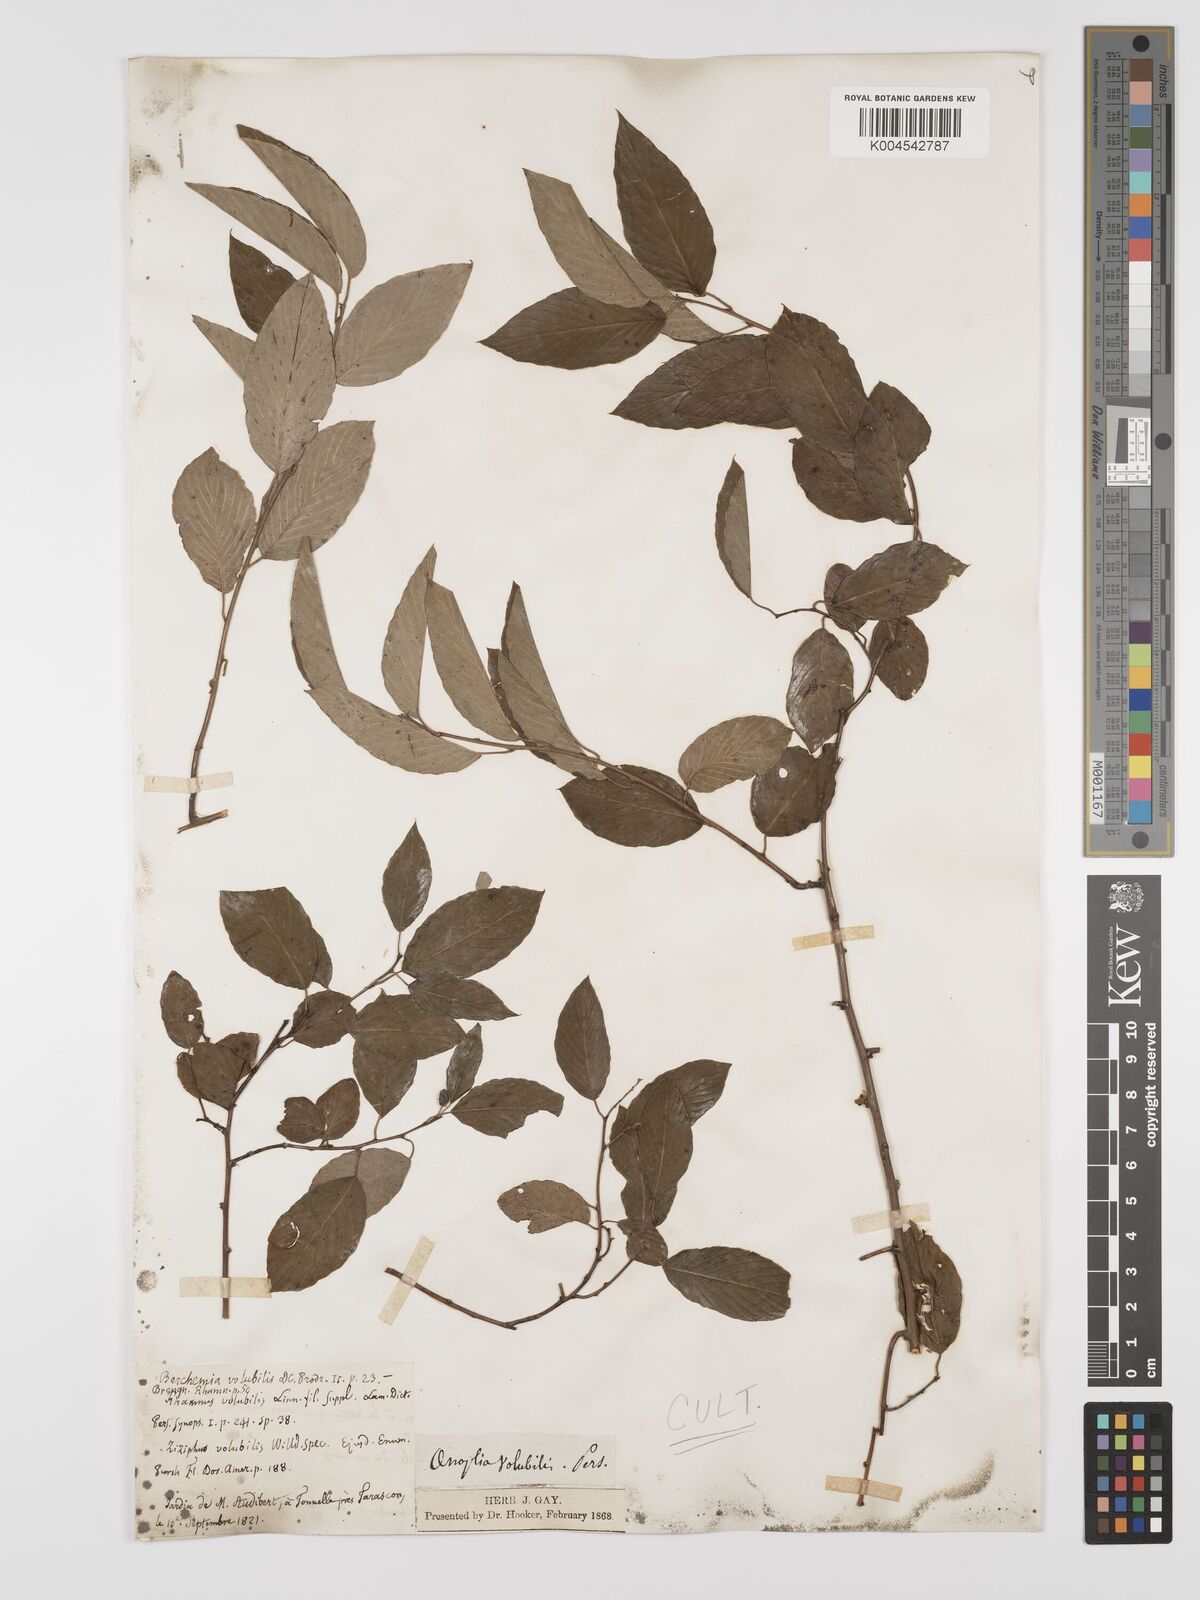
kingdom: Plantae
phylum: Tracheophyta
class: Magnoliopsida
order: Rosales
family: Rhamnaceae
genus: Berchemia
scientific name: Berchemia scandens
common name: Supplejack
